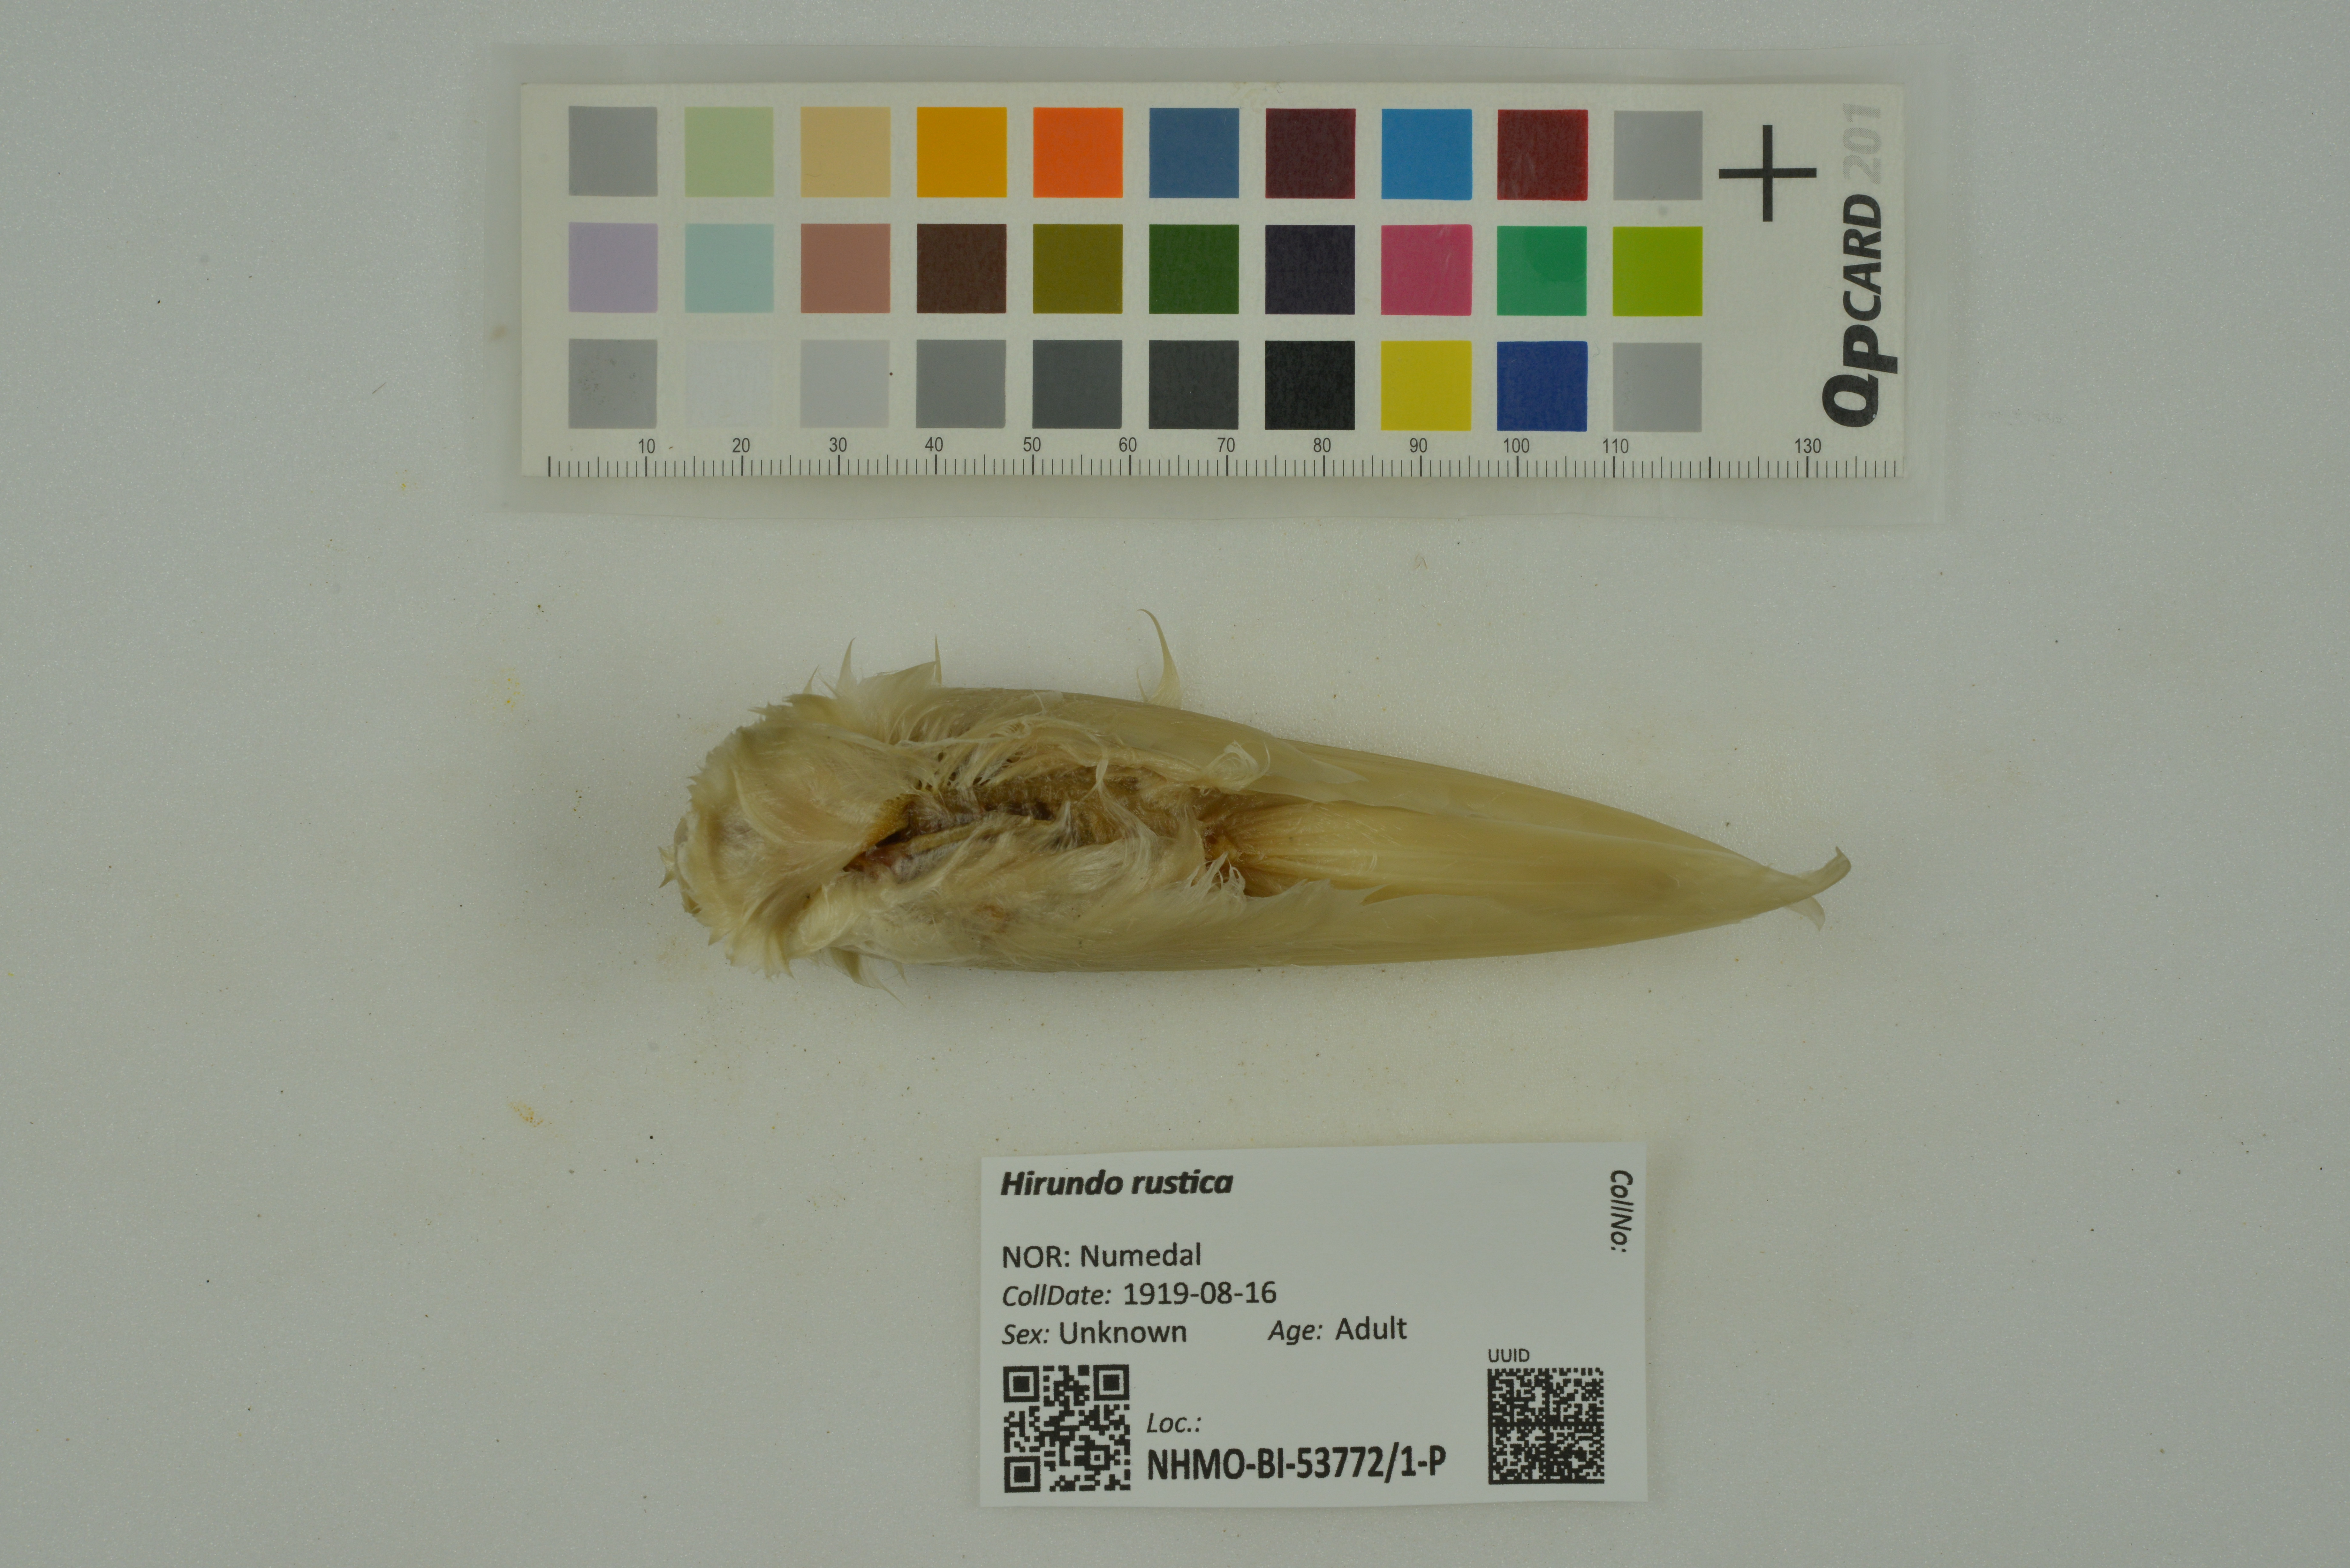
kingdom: Animalia
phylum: Chordata
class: Aves
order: Passeriformes
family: Hirundinidae
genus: Hirundo
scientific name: Hirundo rustica
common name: Barn swallow
